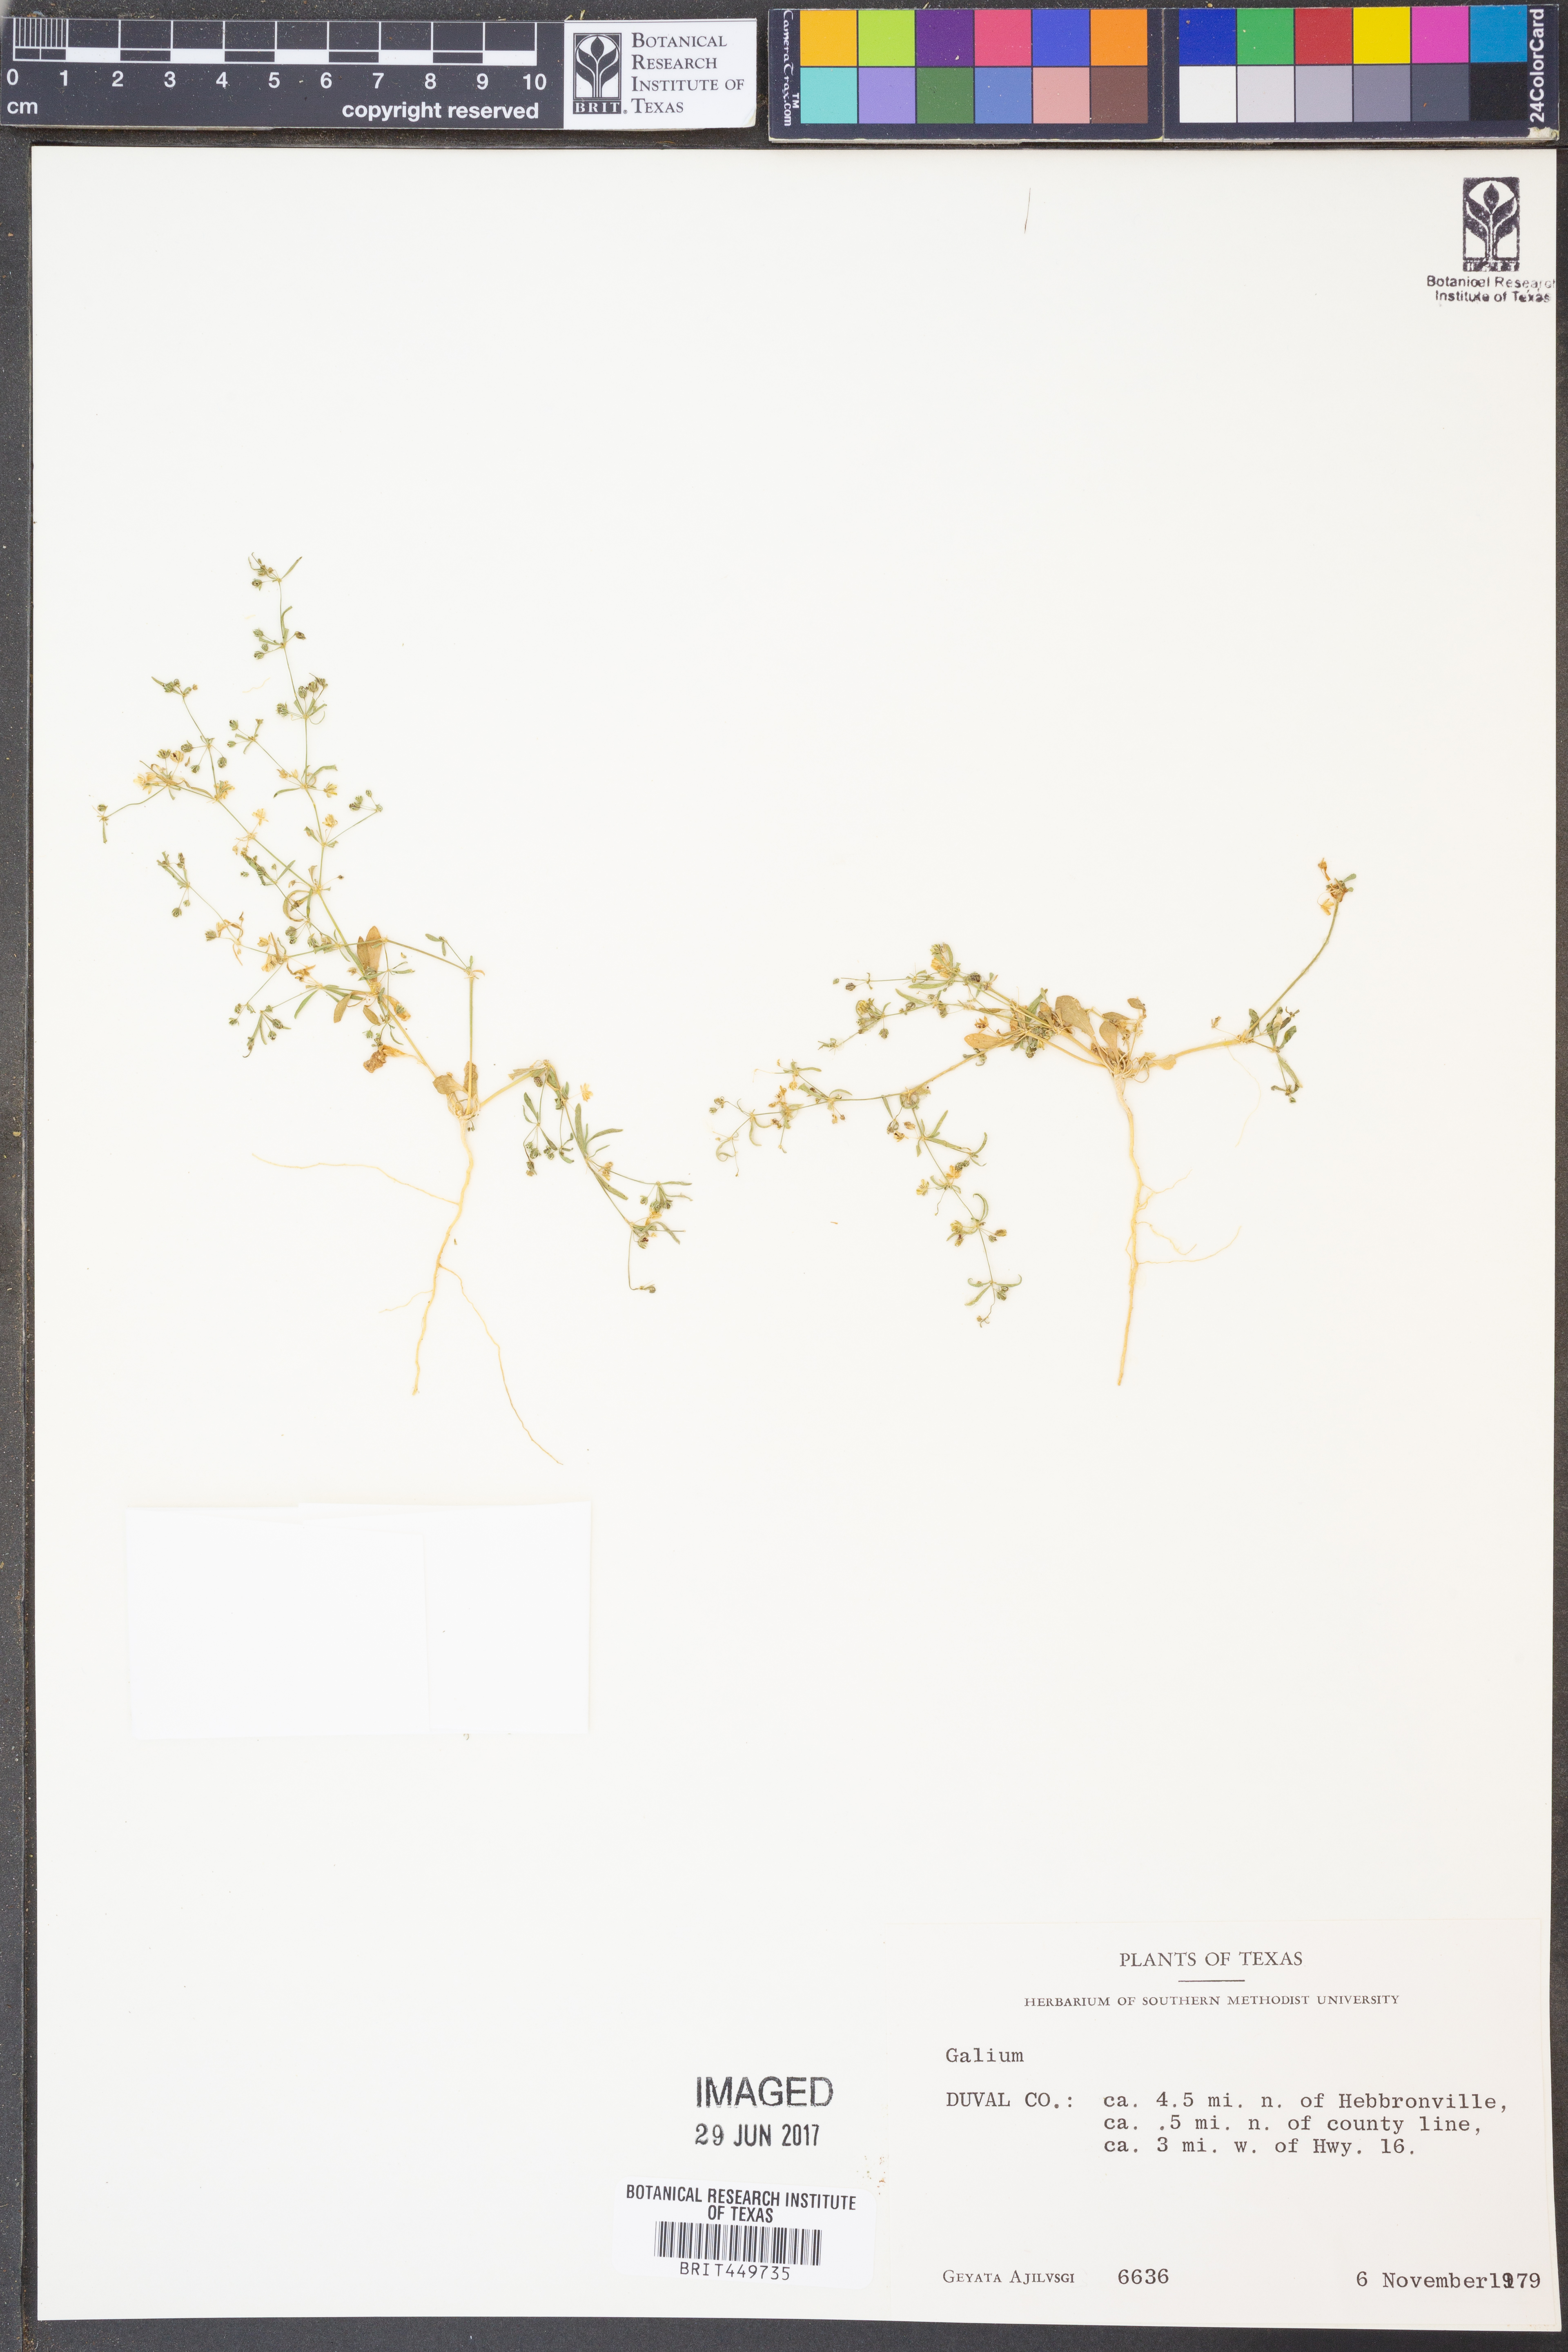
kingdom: Plantae
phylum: Tracheophyta
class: Magnoliopsida
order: Gentianales
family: Rubiaceae
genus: Galium
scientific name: Galium
